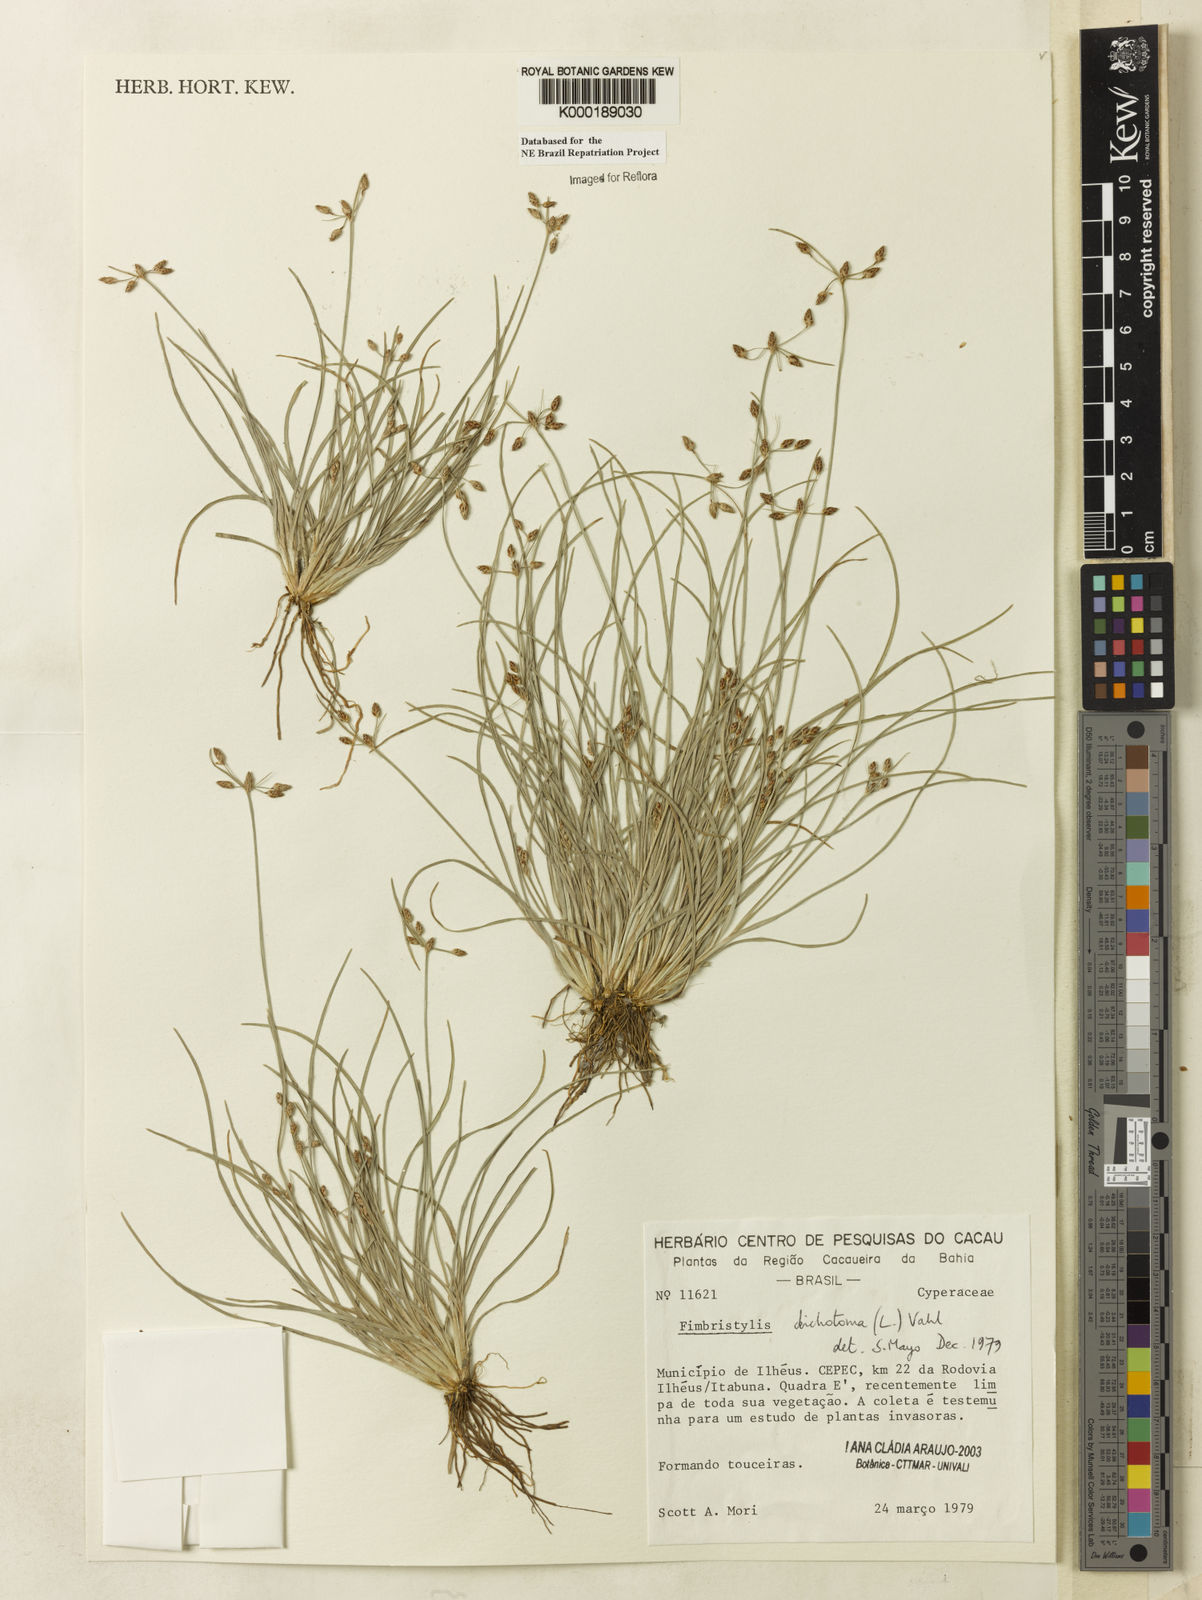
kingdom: Plantae
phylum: Tracheophyta
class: Liliopsida
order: Poales
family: Cyperaceae
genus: Fimbristylis
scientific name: Fimbristylis dichotoma
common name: Forked fimbry
